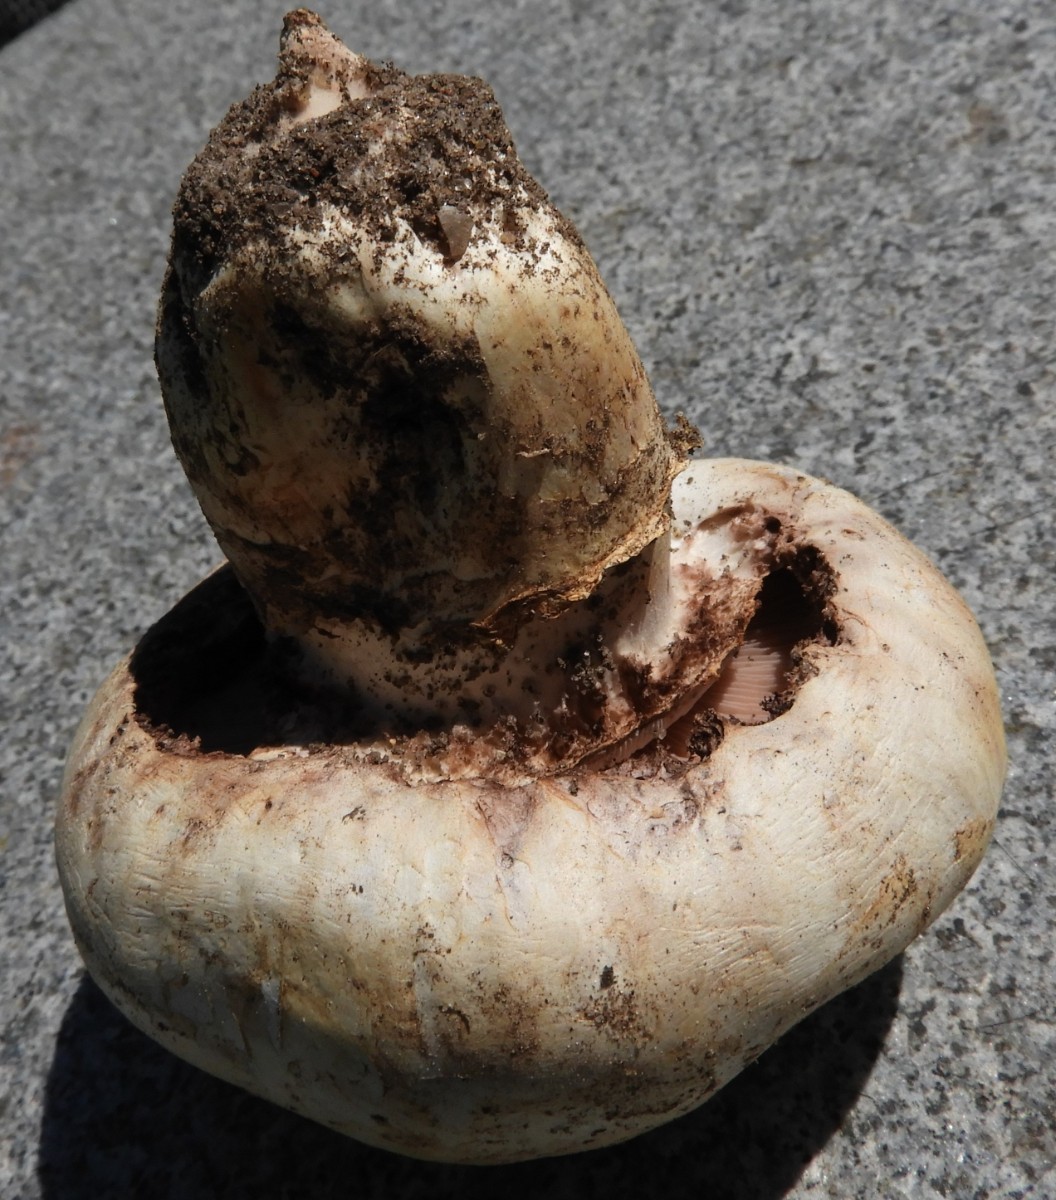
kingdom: Fungi
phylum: Basidiomycota
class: Agaricomycetes
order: Agaricales
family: Agaricaceae
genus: Agaricus
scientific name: Agaricus bitorquis
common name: vej-champignon
